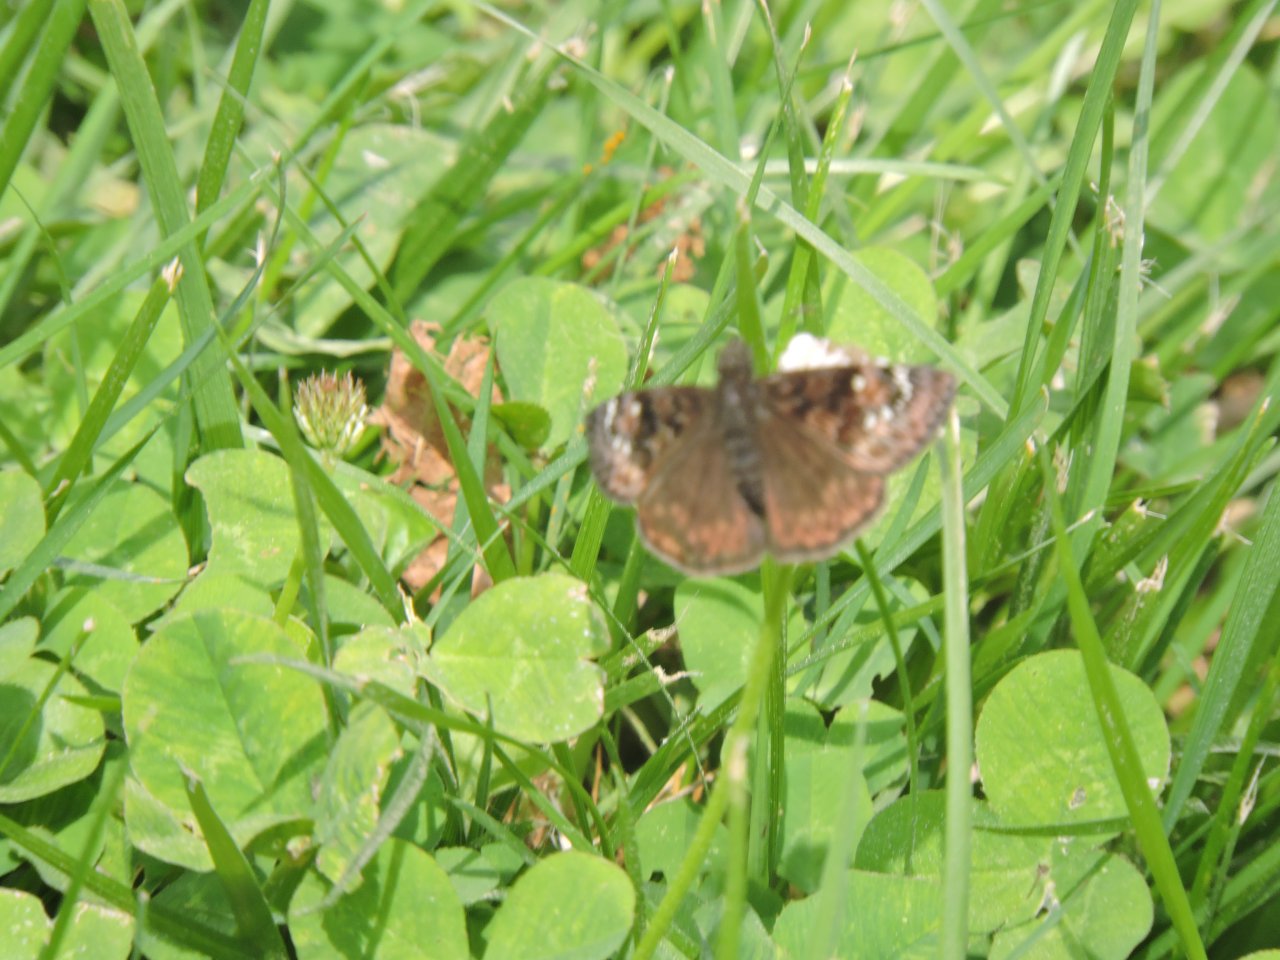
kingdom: Animalia
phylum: Arthropoda
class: Insecta
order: Lepidoptera
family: Hesperiidae
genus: Gesta
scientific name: Gesta
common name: Horace's Duskywing
